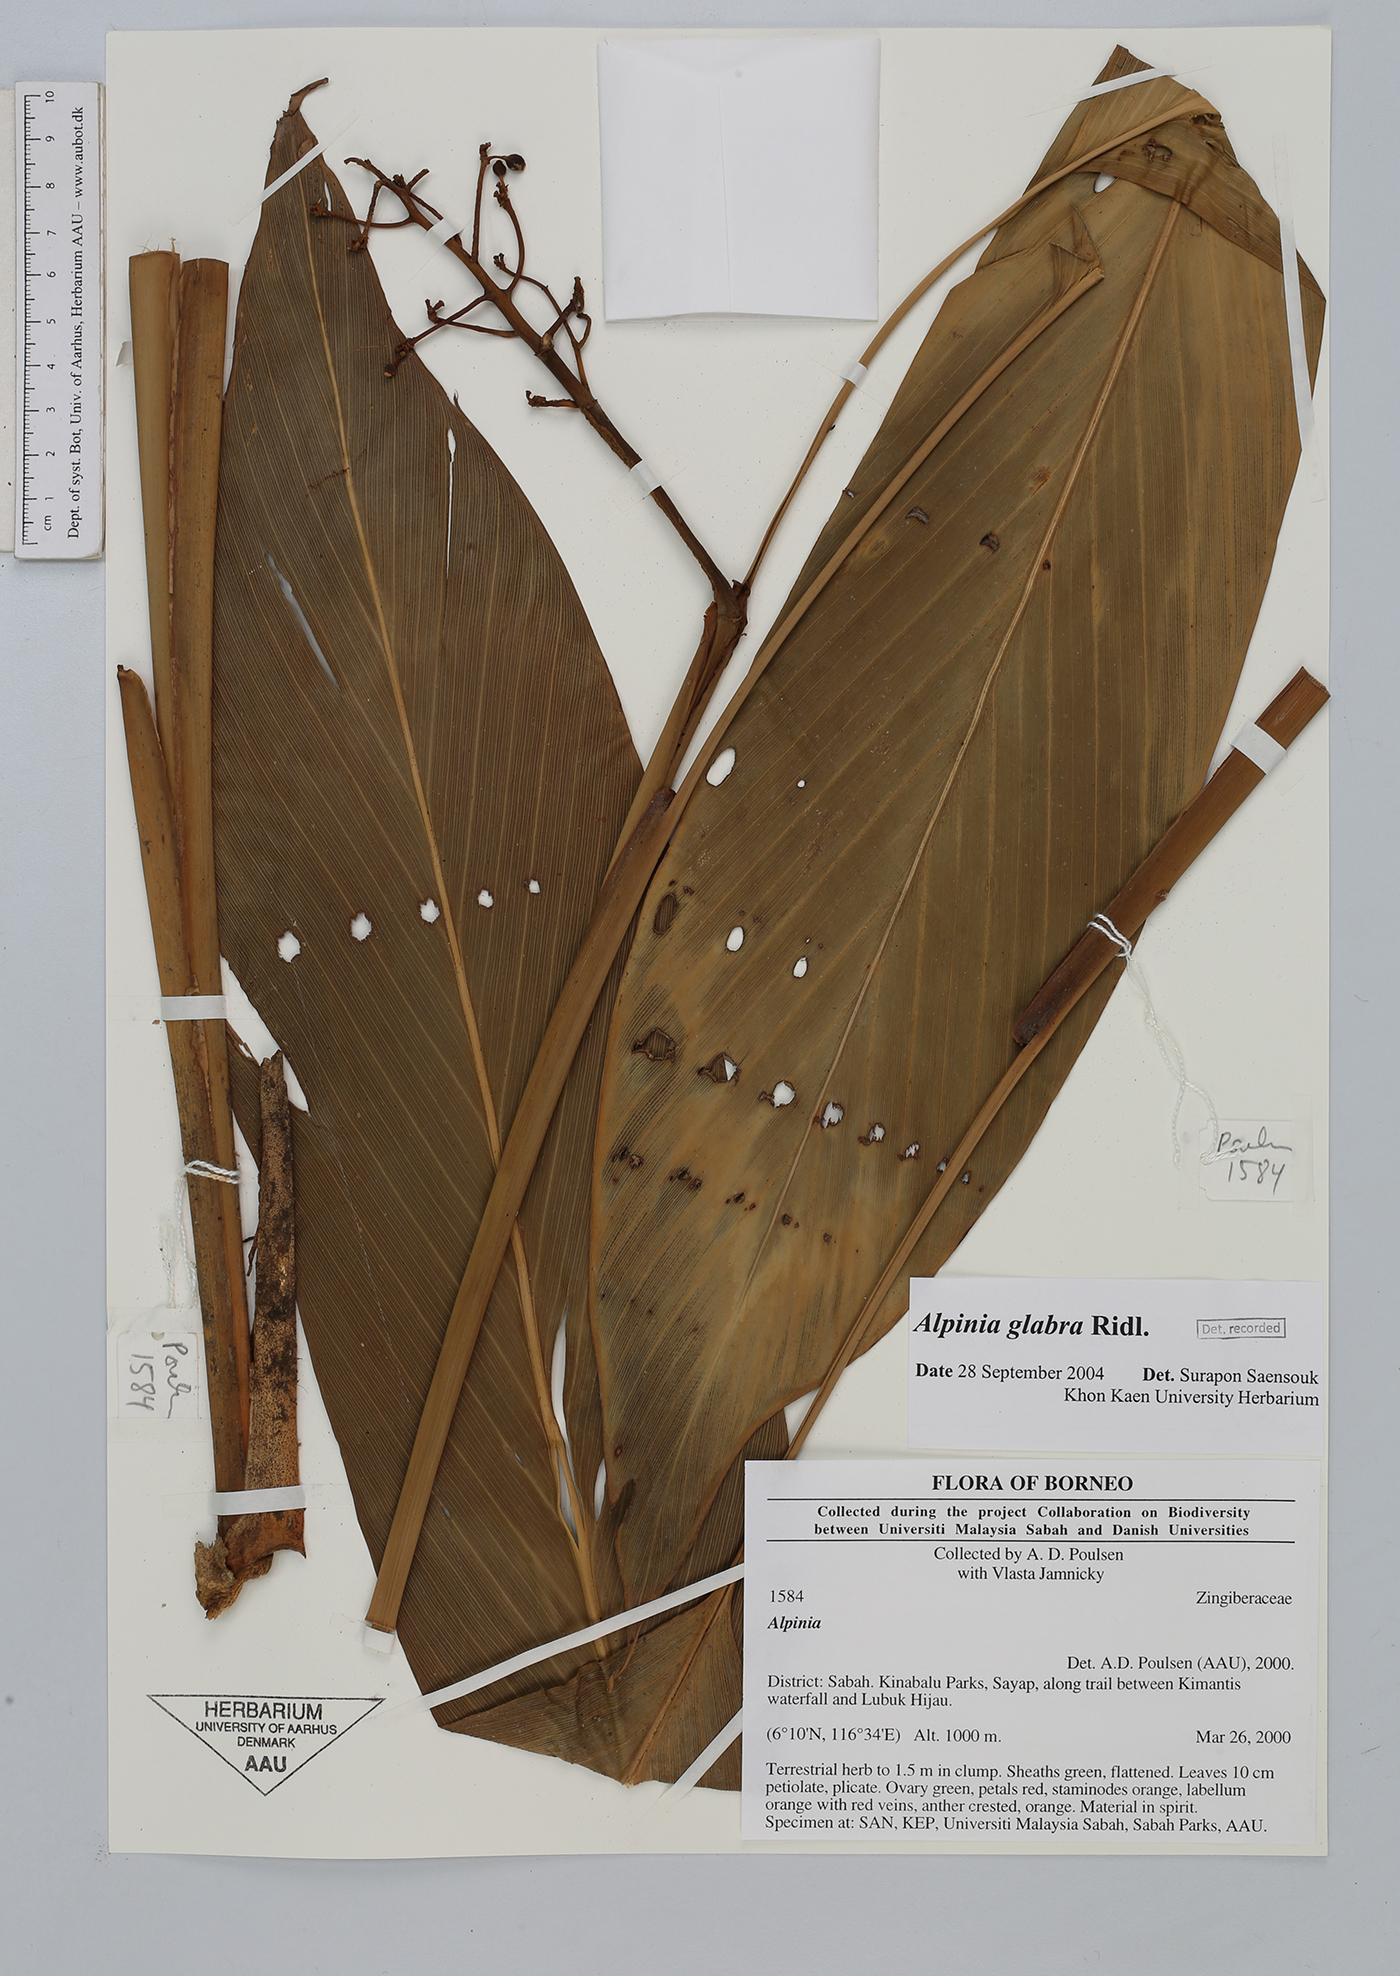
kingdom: Plantae
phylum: Tracheophyta
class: Liliopsida
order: Zingiberales
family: Zingiberaceae
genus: Alpinia
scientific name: Alpinia
